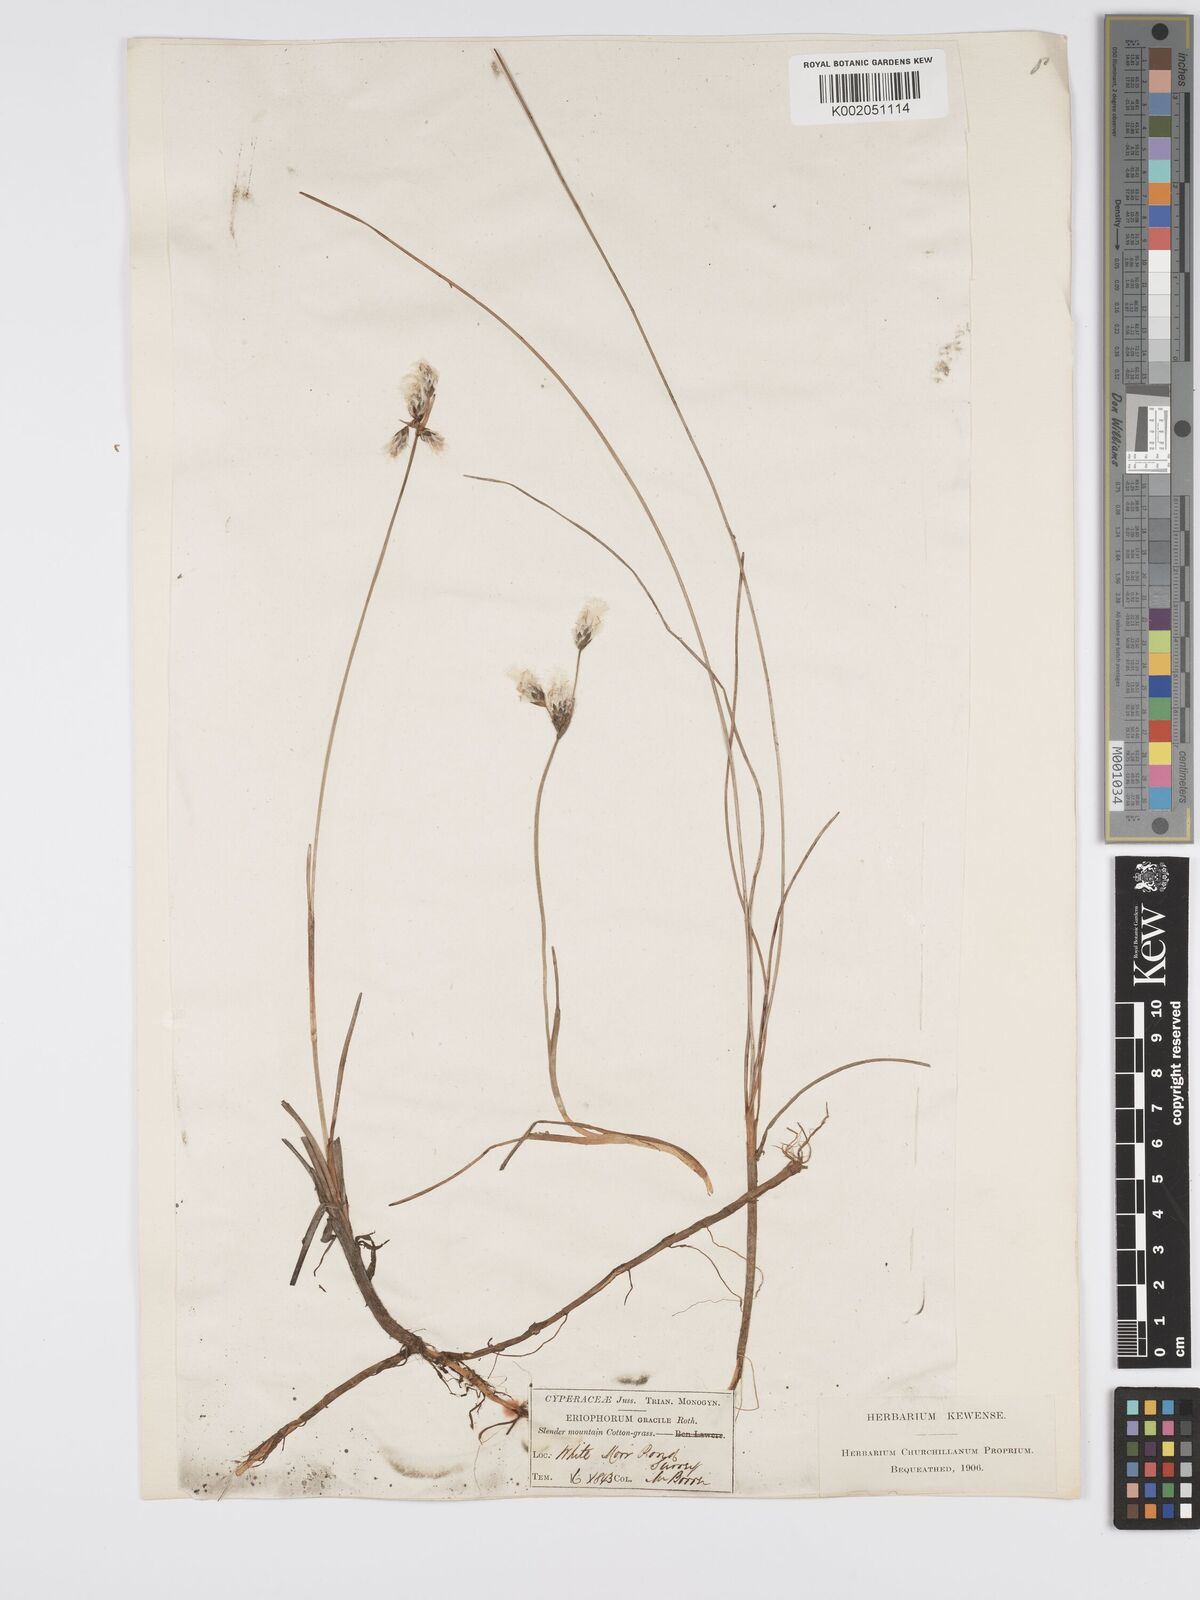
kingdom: Plantae
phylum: Tracheophyta
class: Liliopsida
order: Poales
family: Cyperaceae
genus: Eriophorum
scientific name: Eriophorum gracile
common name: Slender cottongrass
